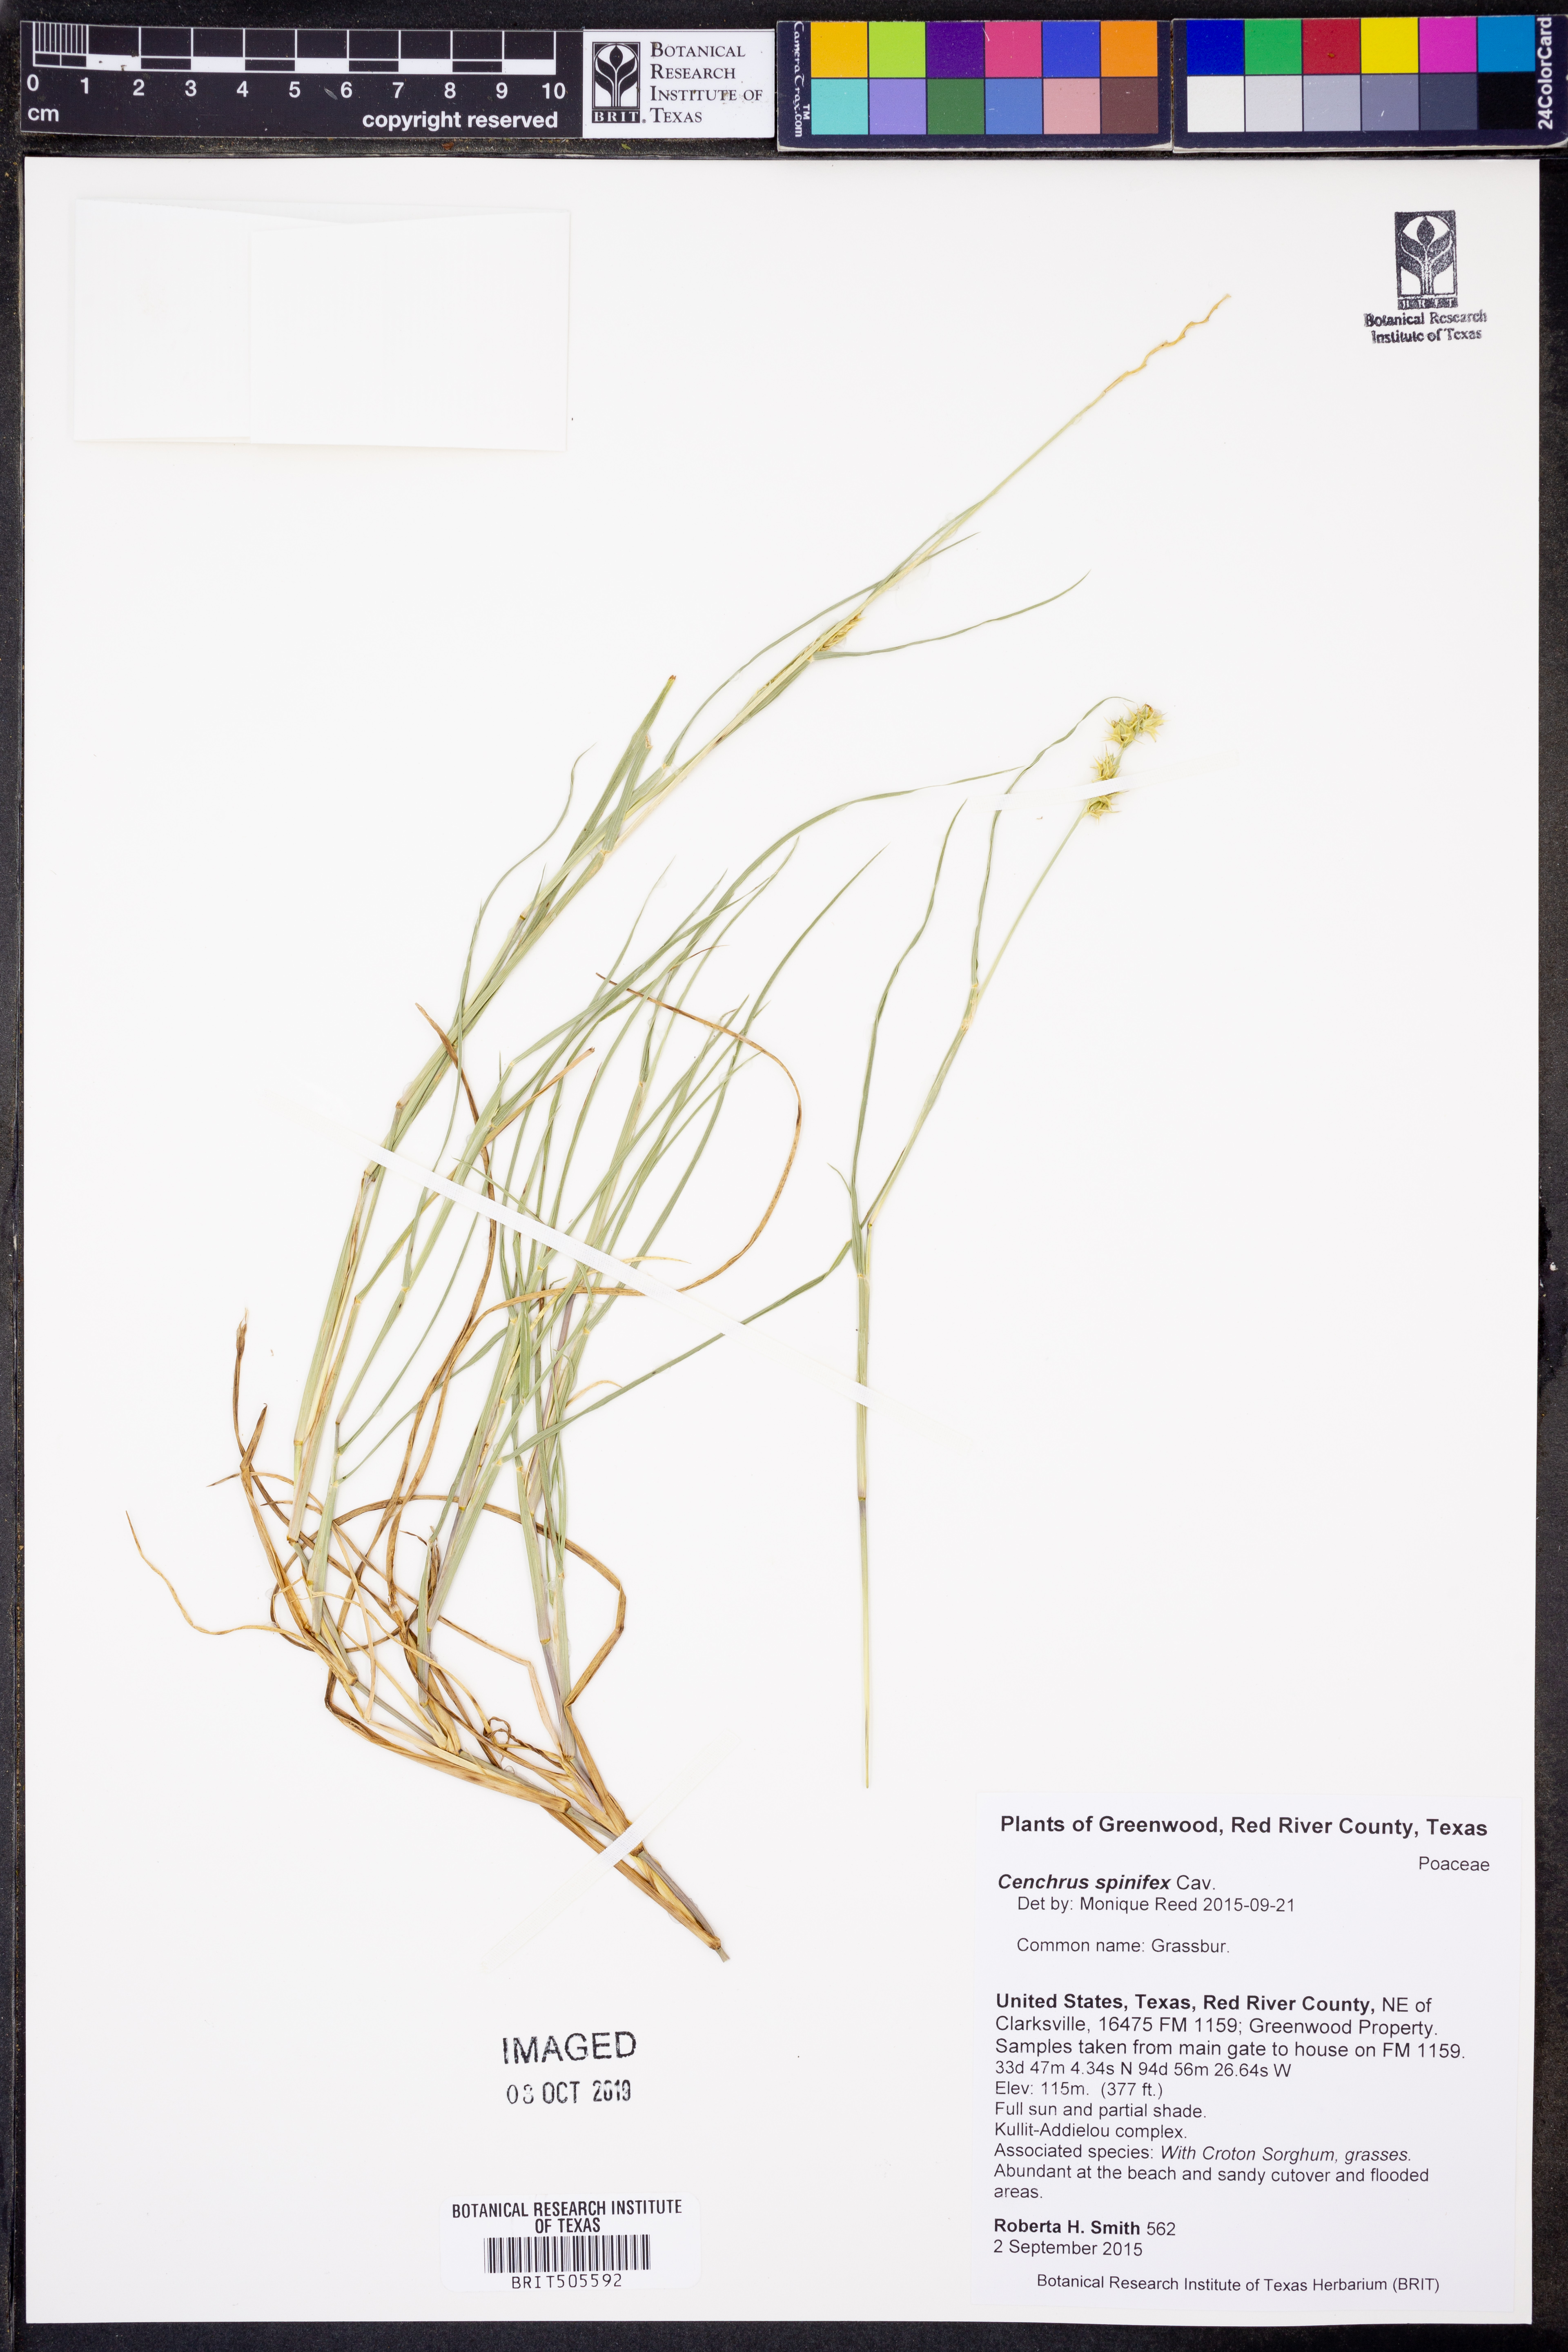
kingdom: Plantae
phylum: Tracheophyta
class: Liliopsida
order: Poales
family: Poaceae
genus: Cenchrus
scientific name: Cenchrus spinifex
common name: Coast sandbur
